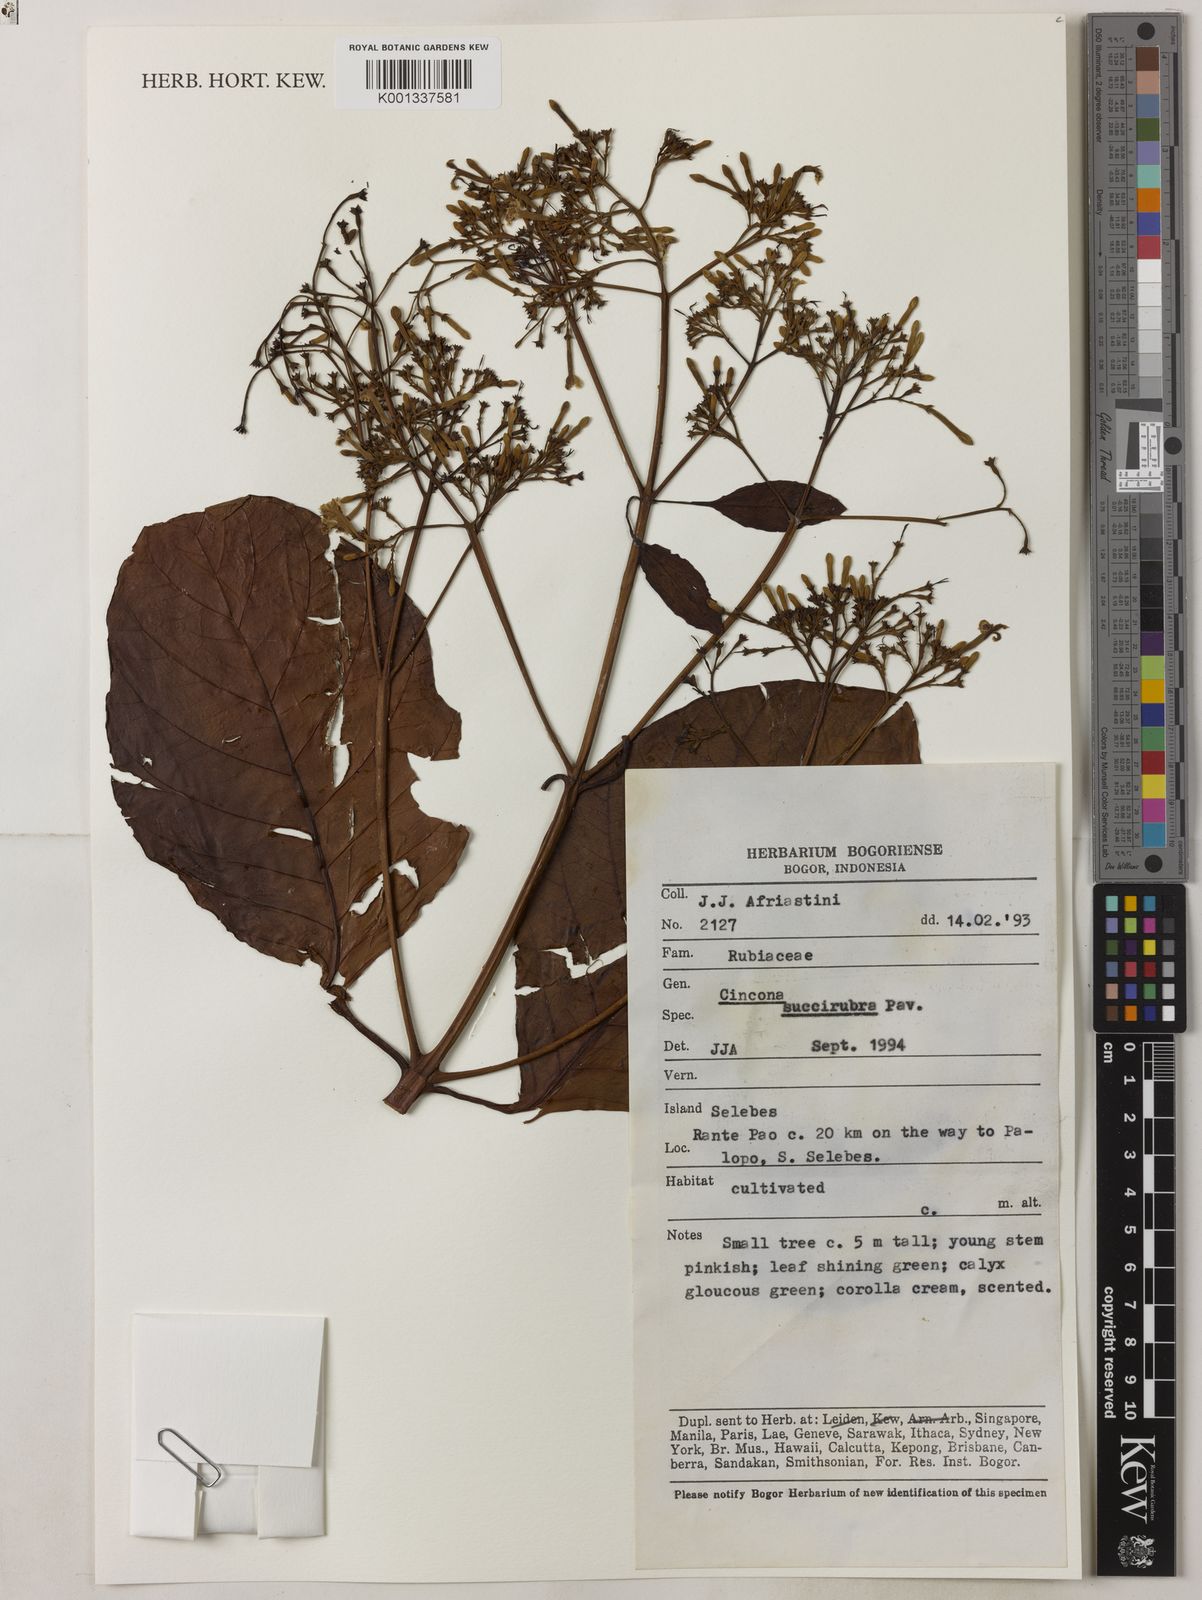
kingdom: Plantae
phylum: Tracheophyta
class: Magnoliopsida
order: Gentianales
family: Rubiaceae
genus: Cinchona
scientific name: Cinchona pubescens
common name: Quinine
